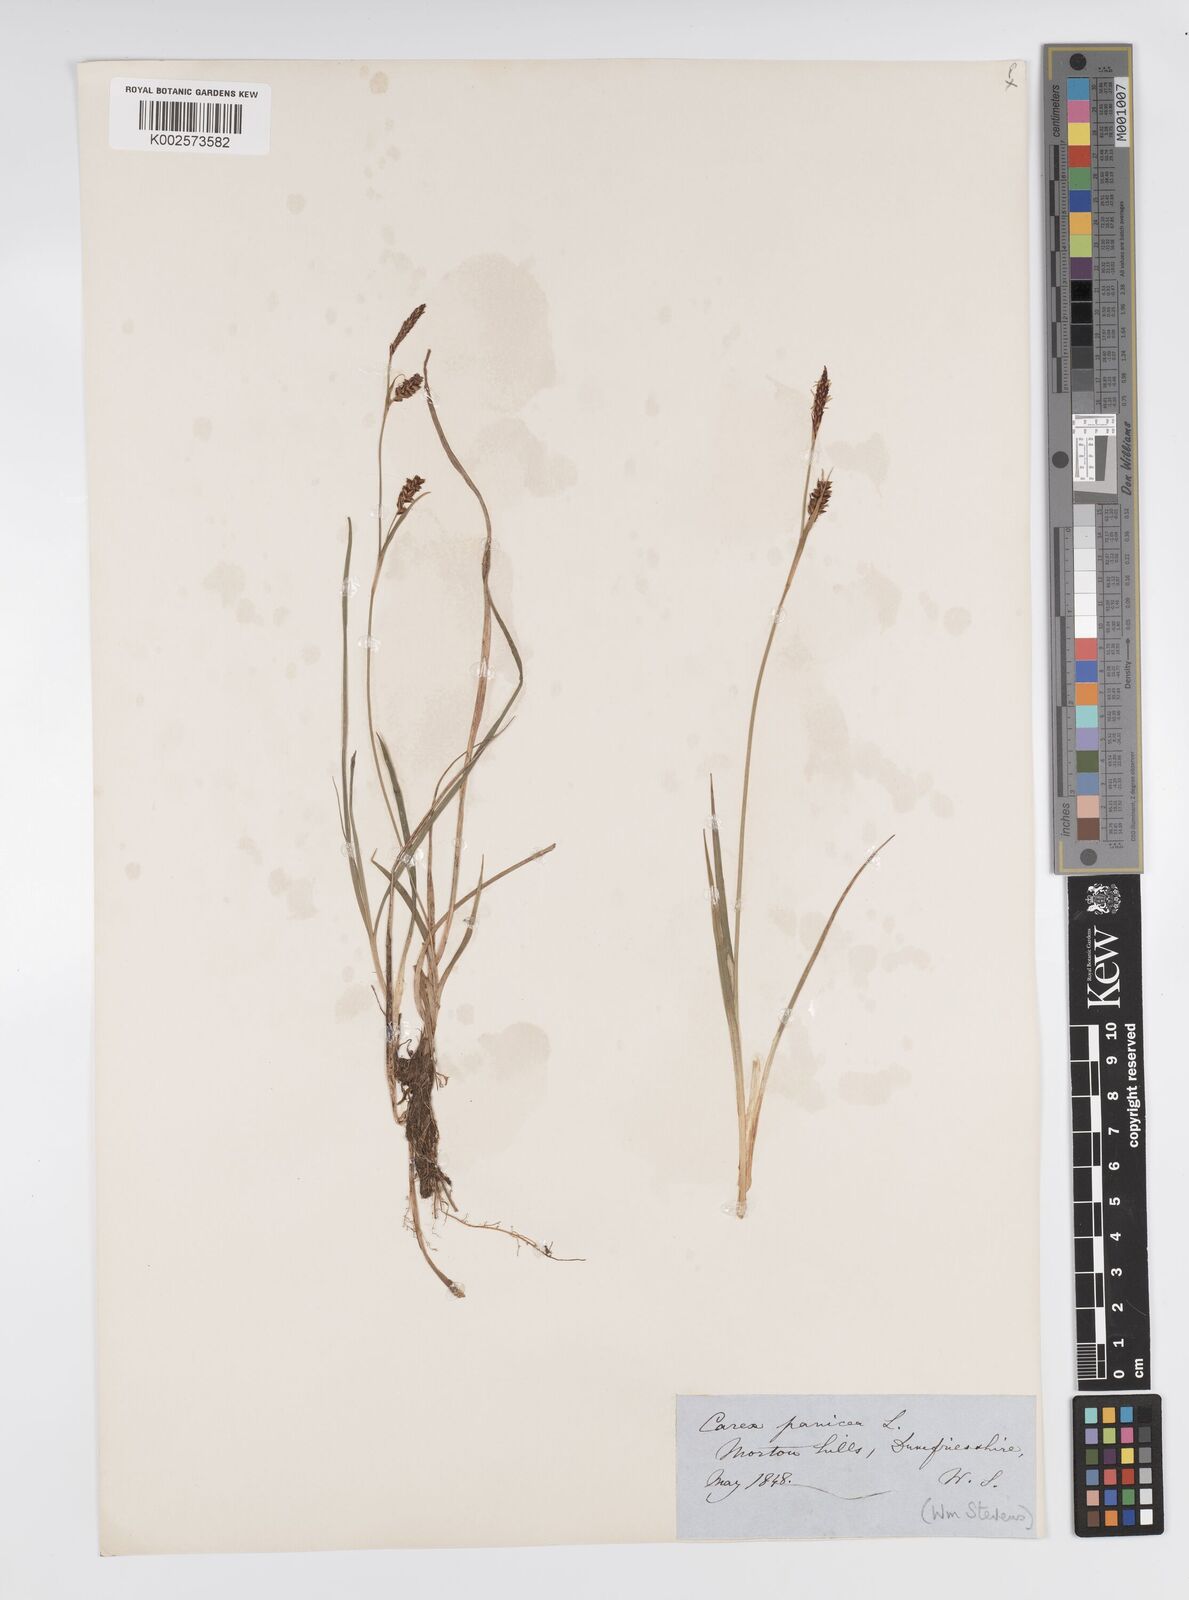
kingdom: Plantae
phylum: Tracheophyta
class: Liliopsida
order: Poales
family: Cyperaceae
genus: Carex
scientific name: Carex panicea
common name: Carnation sedge
